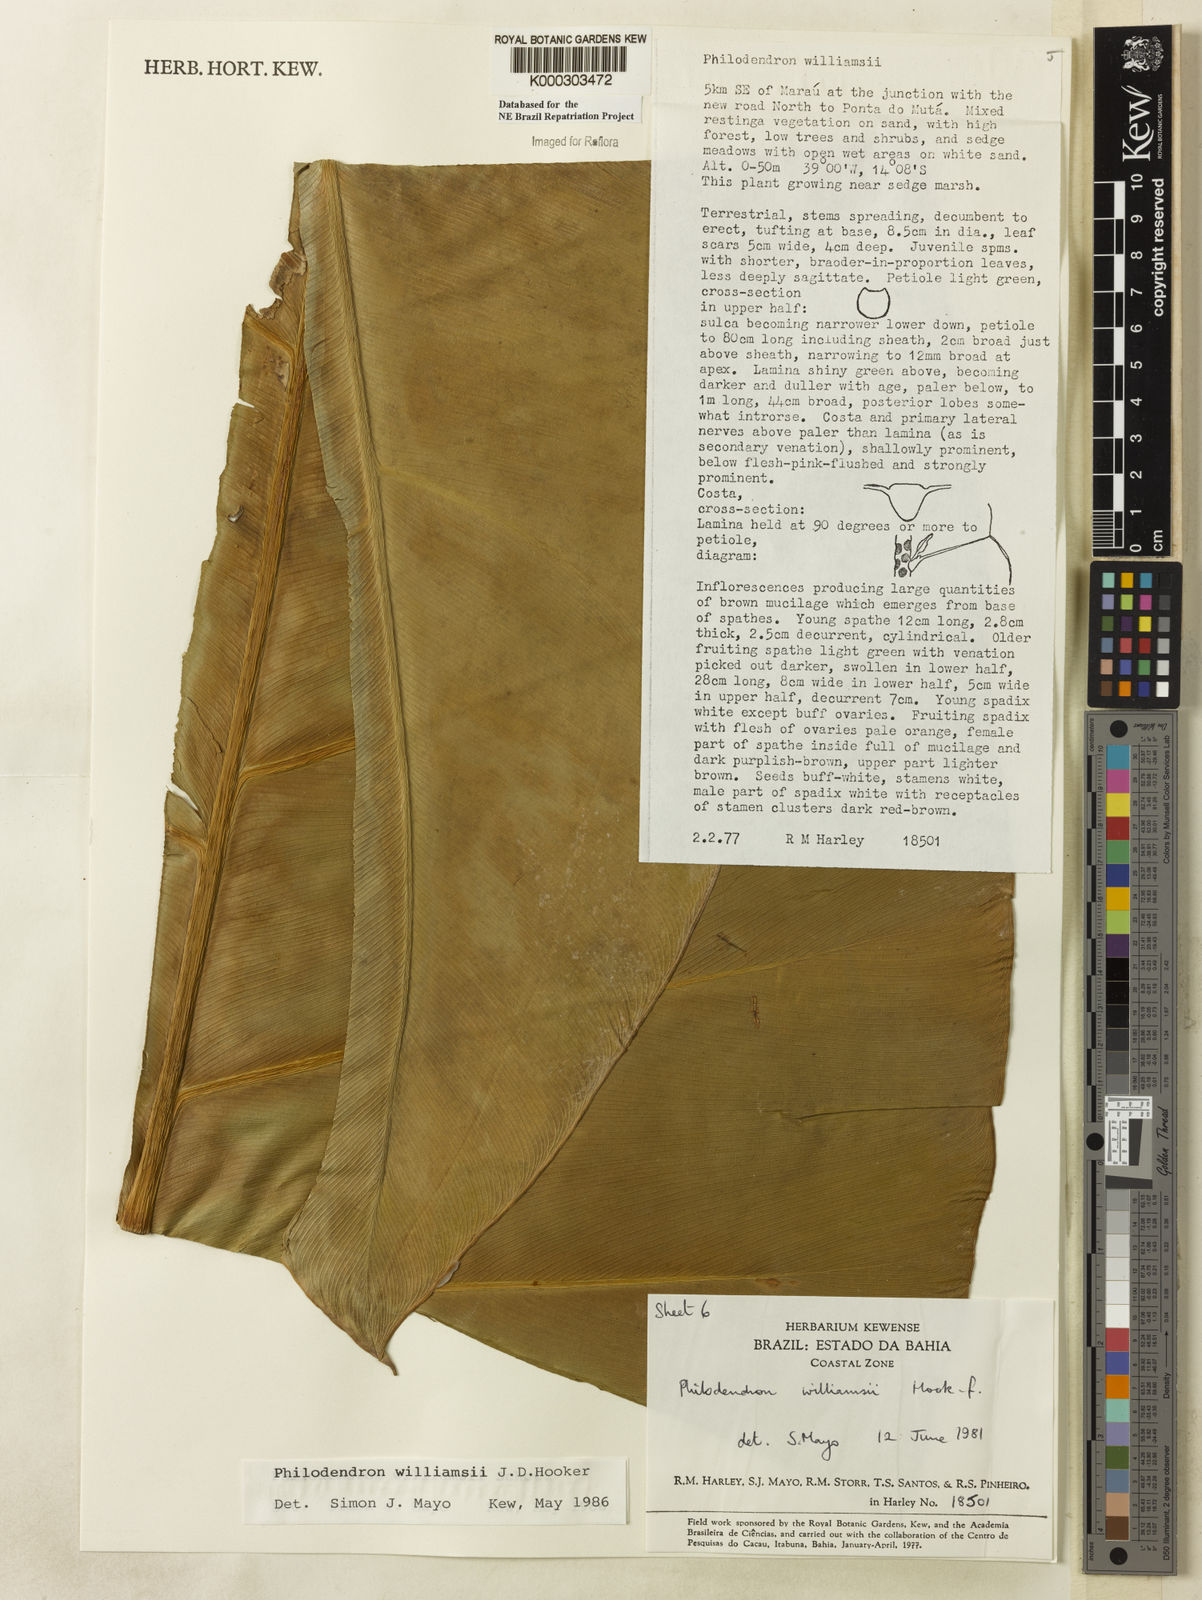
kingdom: Plantae
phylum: Tracheophyta
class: Liliopsida
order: Alismatales
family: Araceae
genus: Thaumatophyllum
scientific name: Thaumatophyllum williamsii
